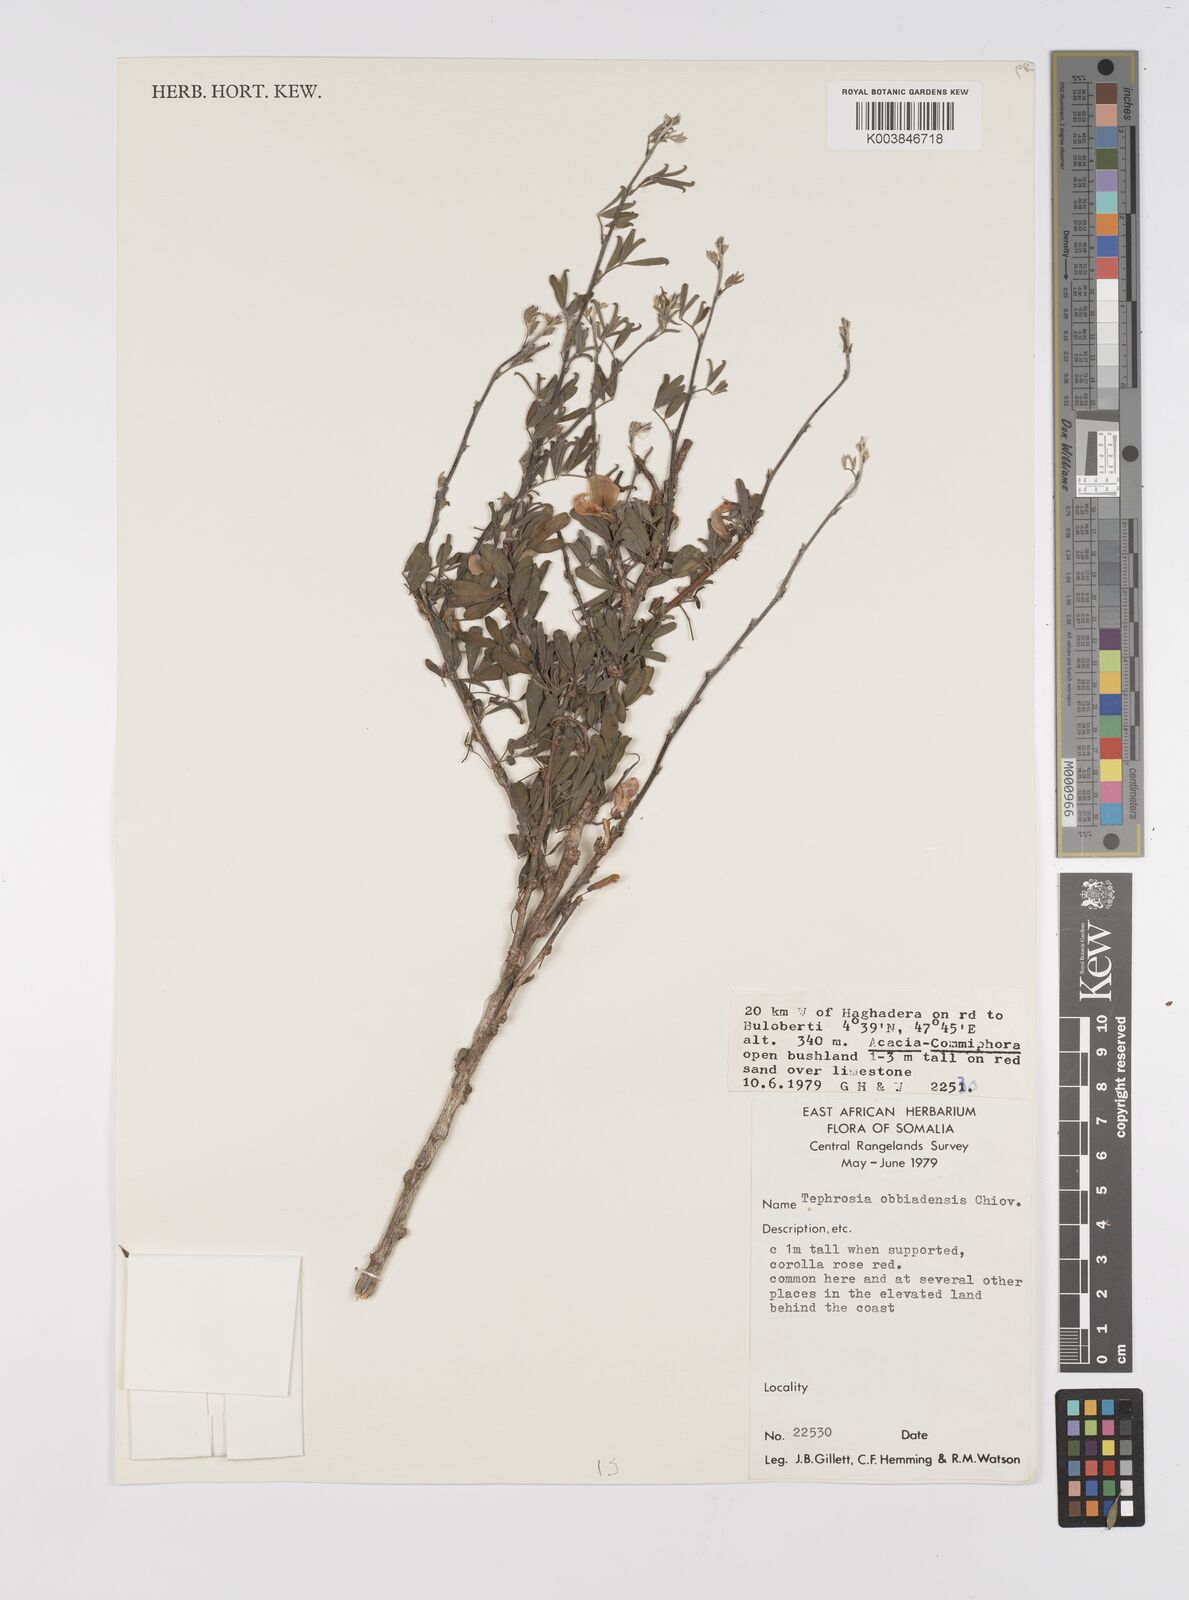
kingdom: Plantae
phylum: Tracheophyta
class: Magnoliopsida
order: Fabales
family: Fabaceae
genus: Tephrosia
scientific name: Tephrosia obbiadensis
